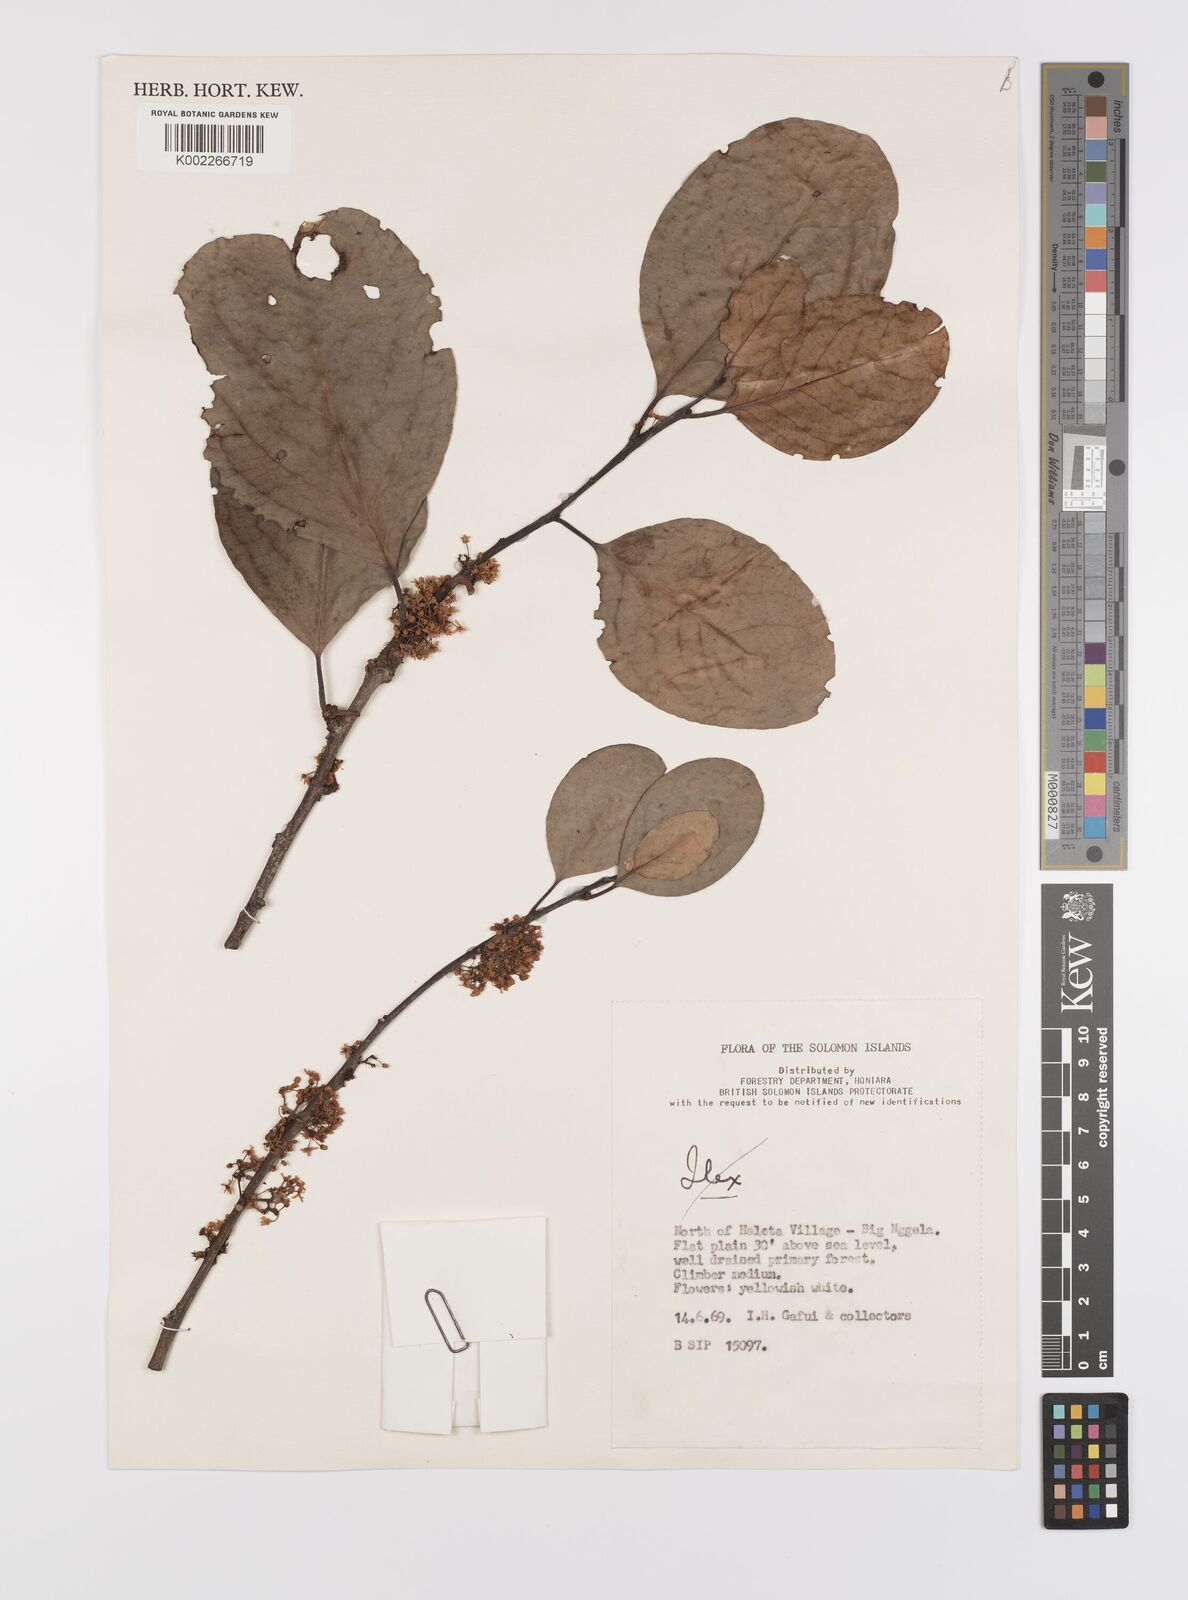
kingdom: Plantae
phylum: Tracheophyta
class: Magnoliopsida
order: Celastrales
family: Celastraceae
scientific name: Celastraceae
